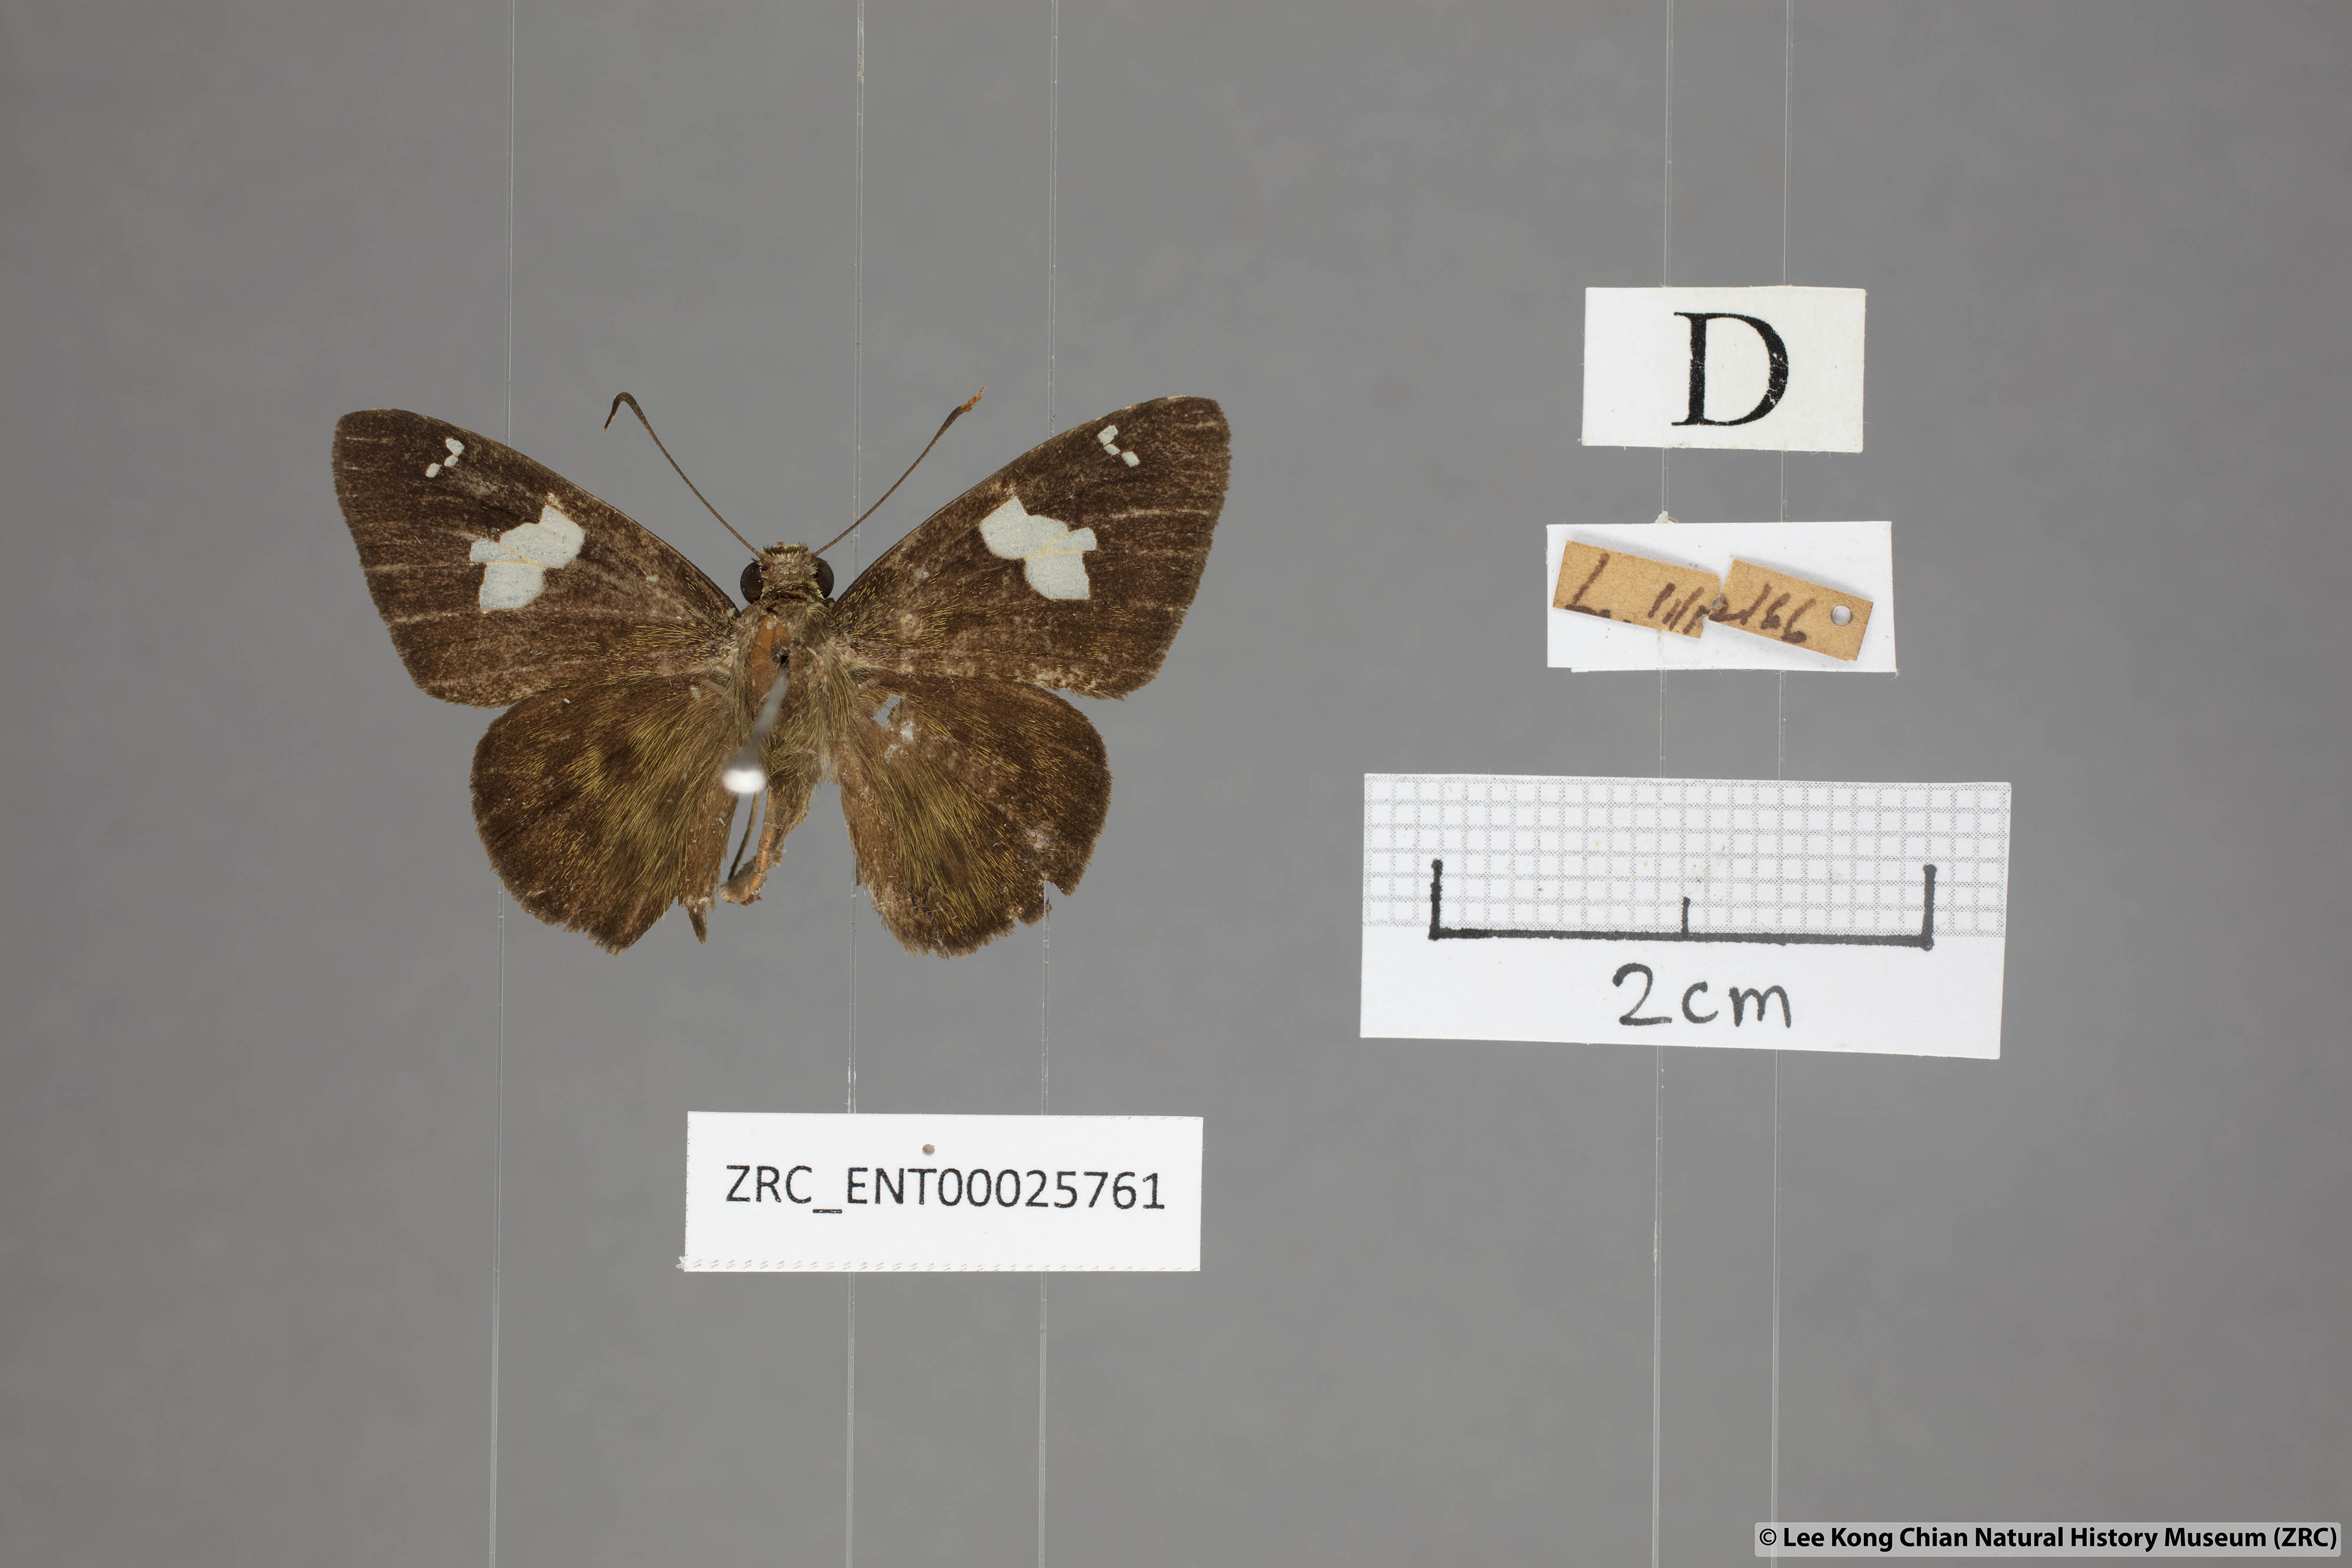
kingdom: Animalia
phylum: Arthropoda
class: Insecta
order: Lepidoptera
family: Hesperiidae
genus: Celaenorrhinus
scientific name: Celaenorrhinus asmara
